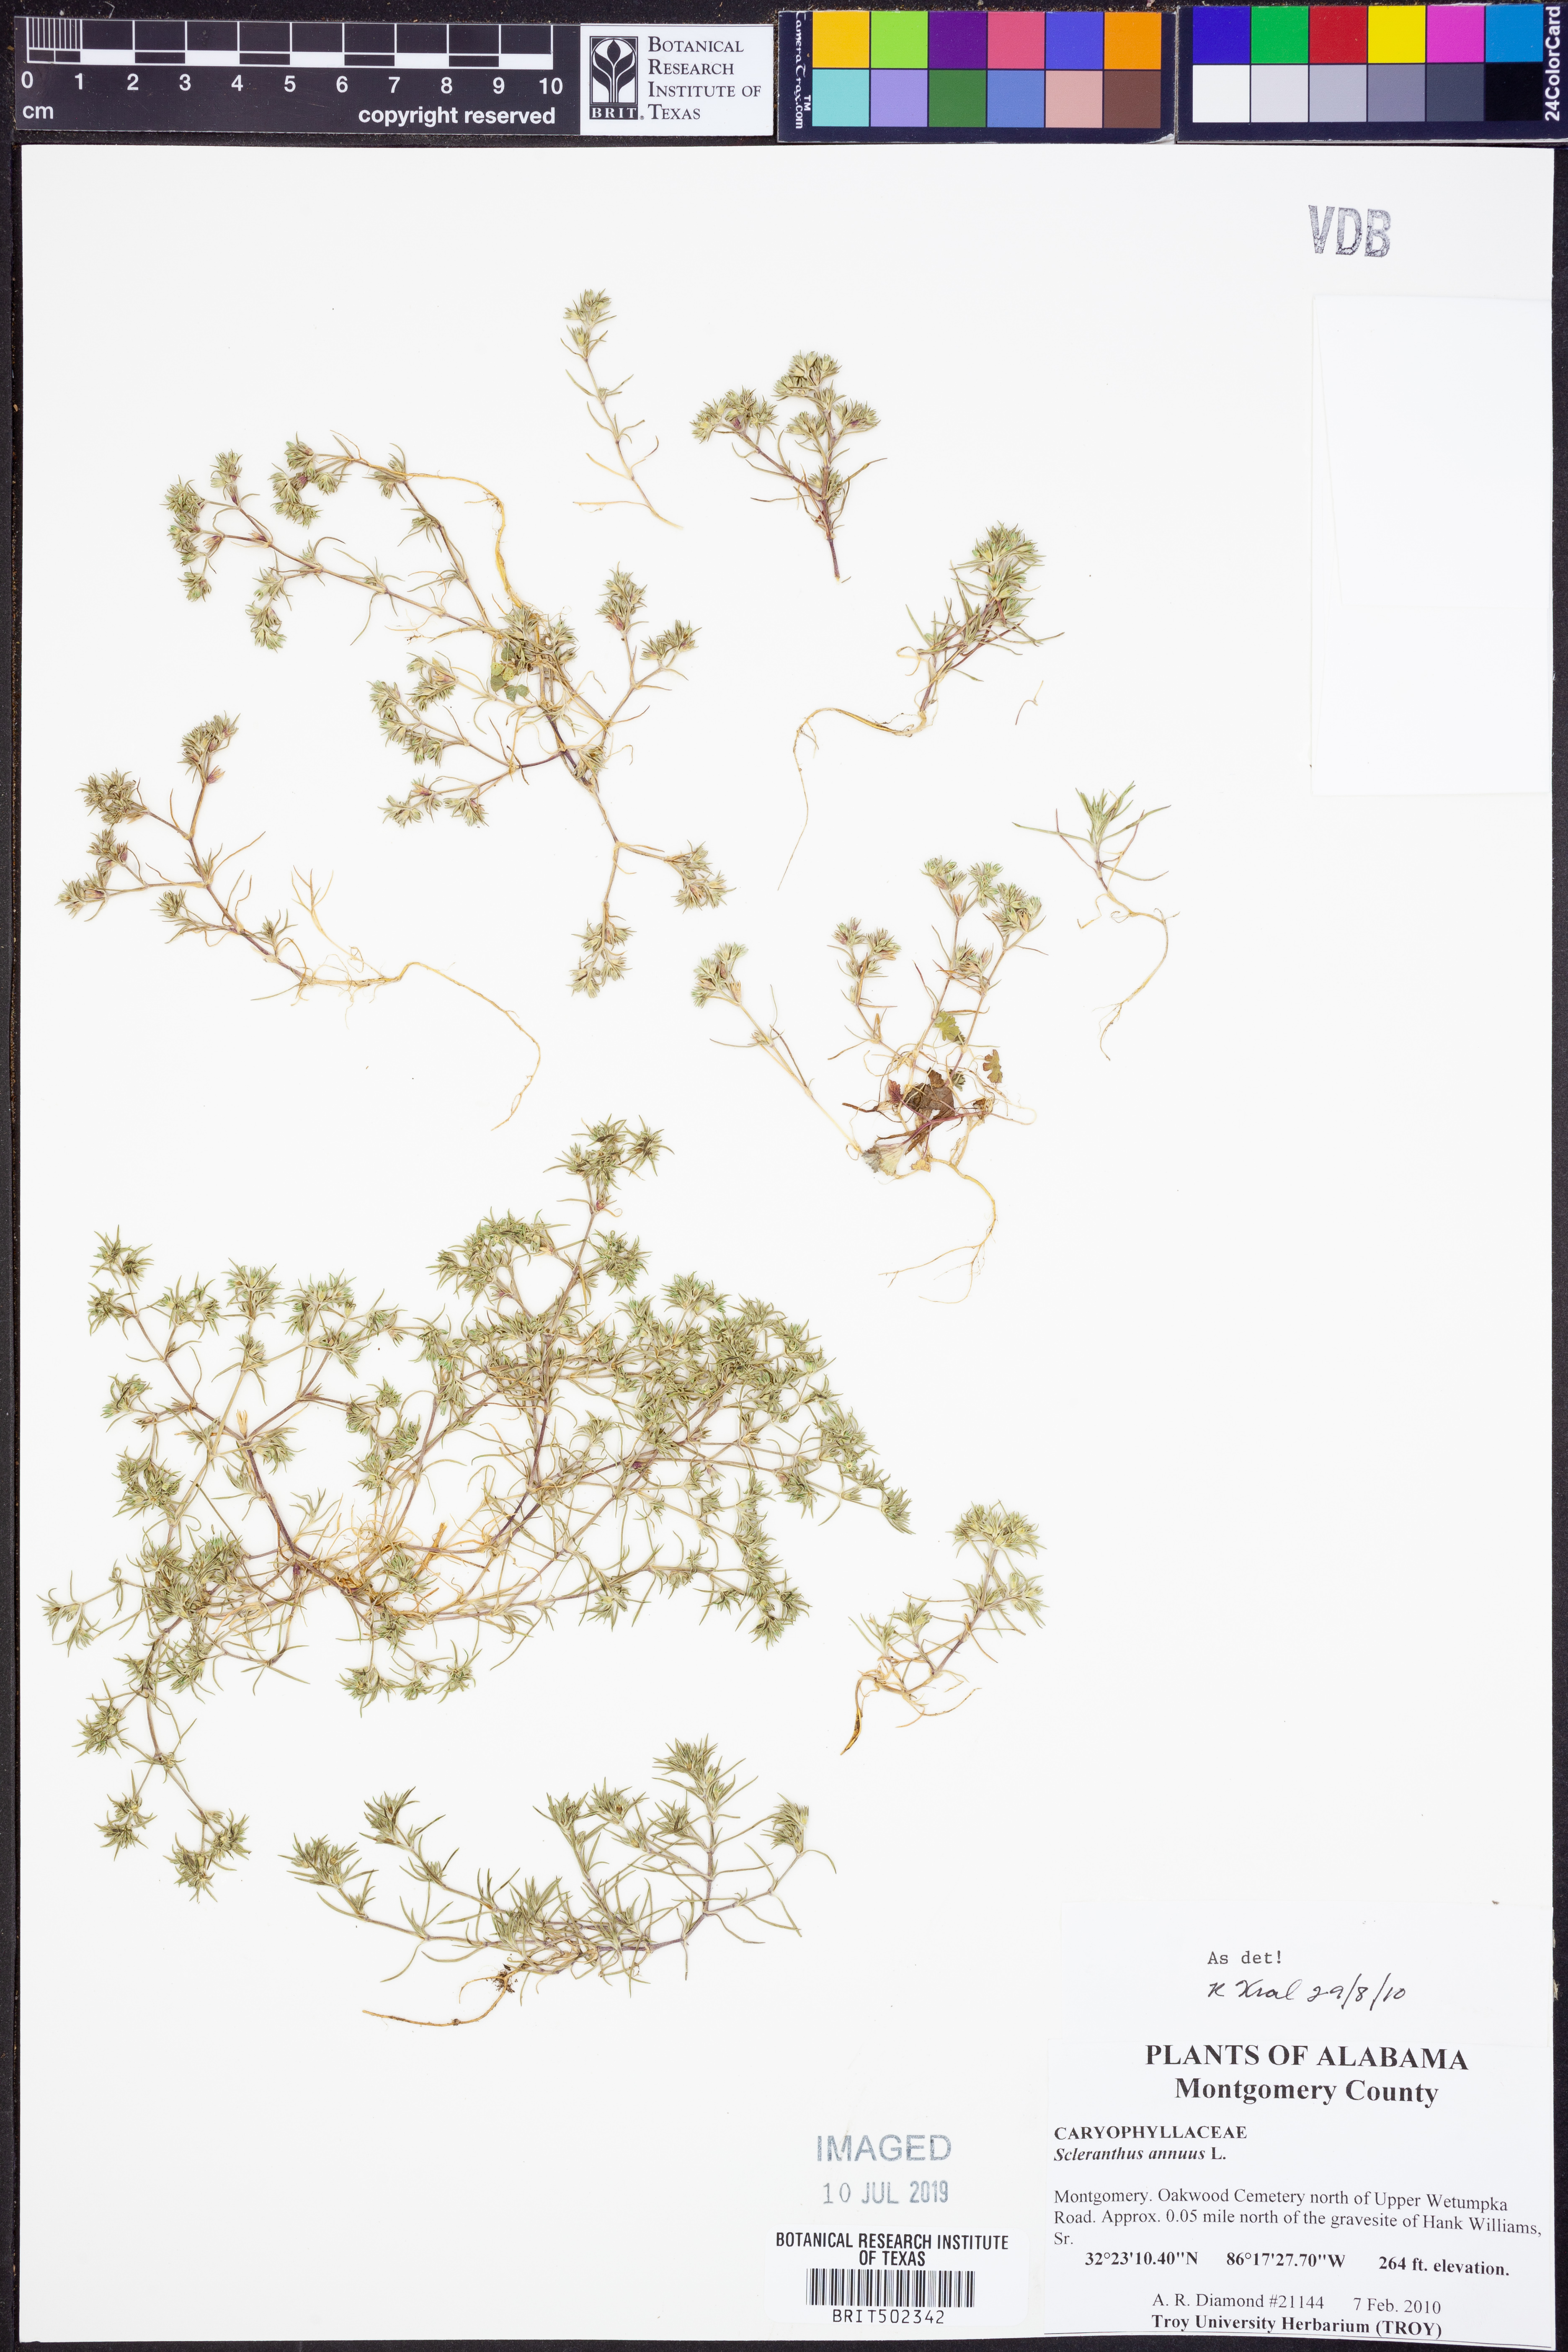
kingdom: Plantae
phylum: Tracheophyta
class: Magnoliopsida
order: Caryophyllales
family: Caryophyllaceae
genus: Scleranthus
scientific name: Scleranthus annuus
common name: Annual knawel
